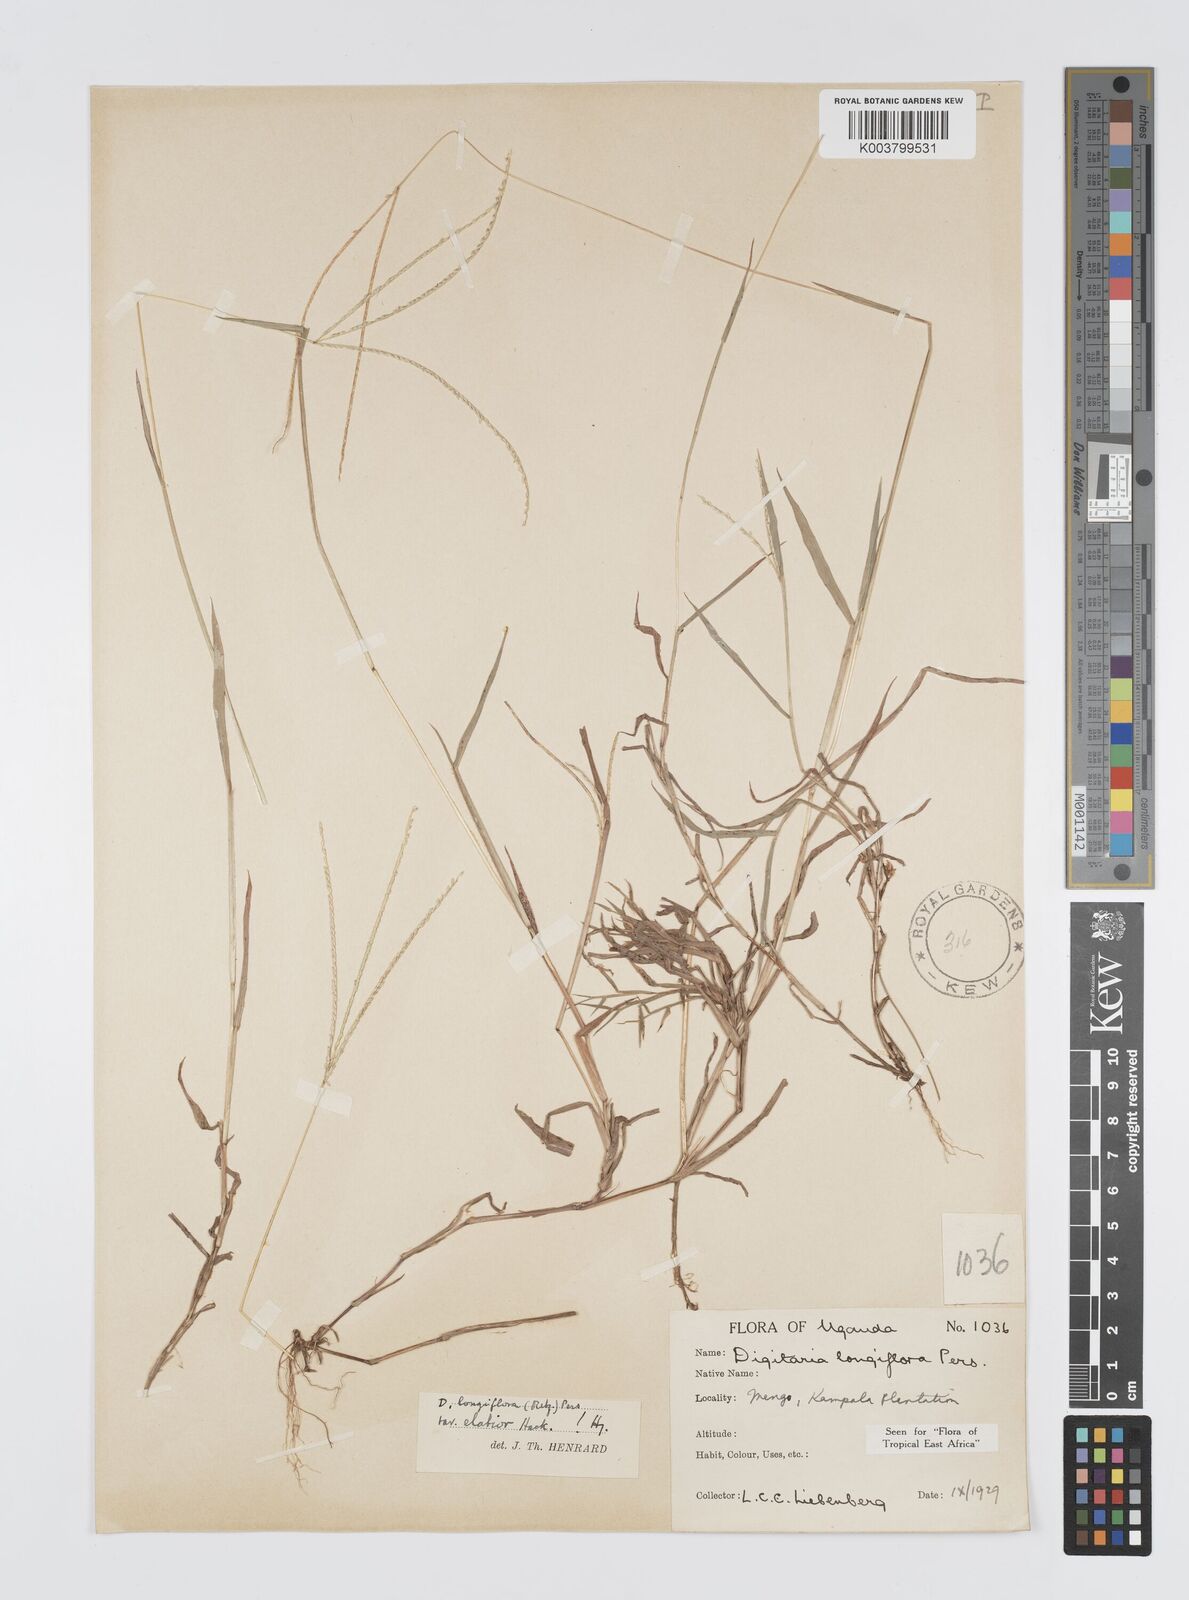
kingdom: Plantae
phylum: Tracheophyta
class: Liliopsida
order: Poales
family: Poaceae
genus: Digitaria
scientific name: Digitaria longiflora
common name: Wire crabgrass
